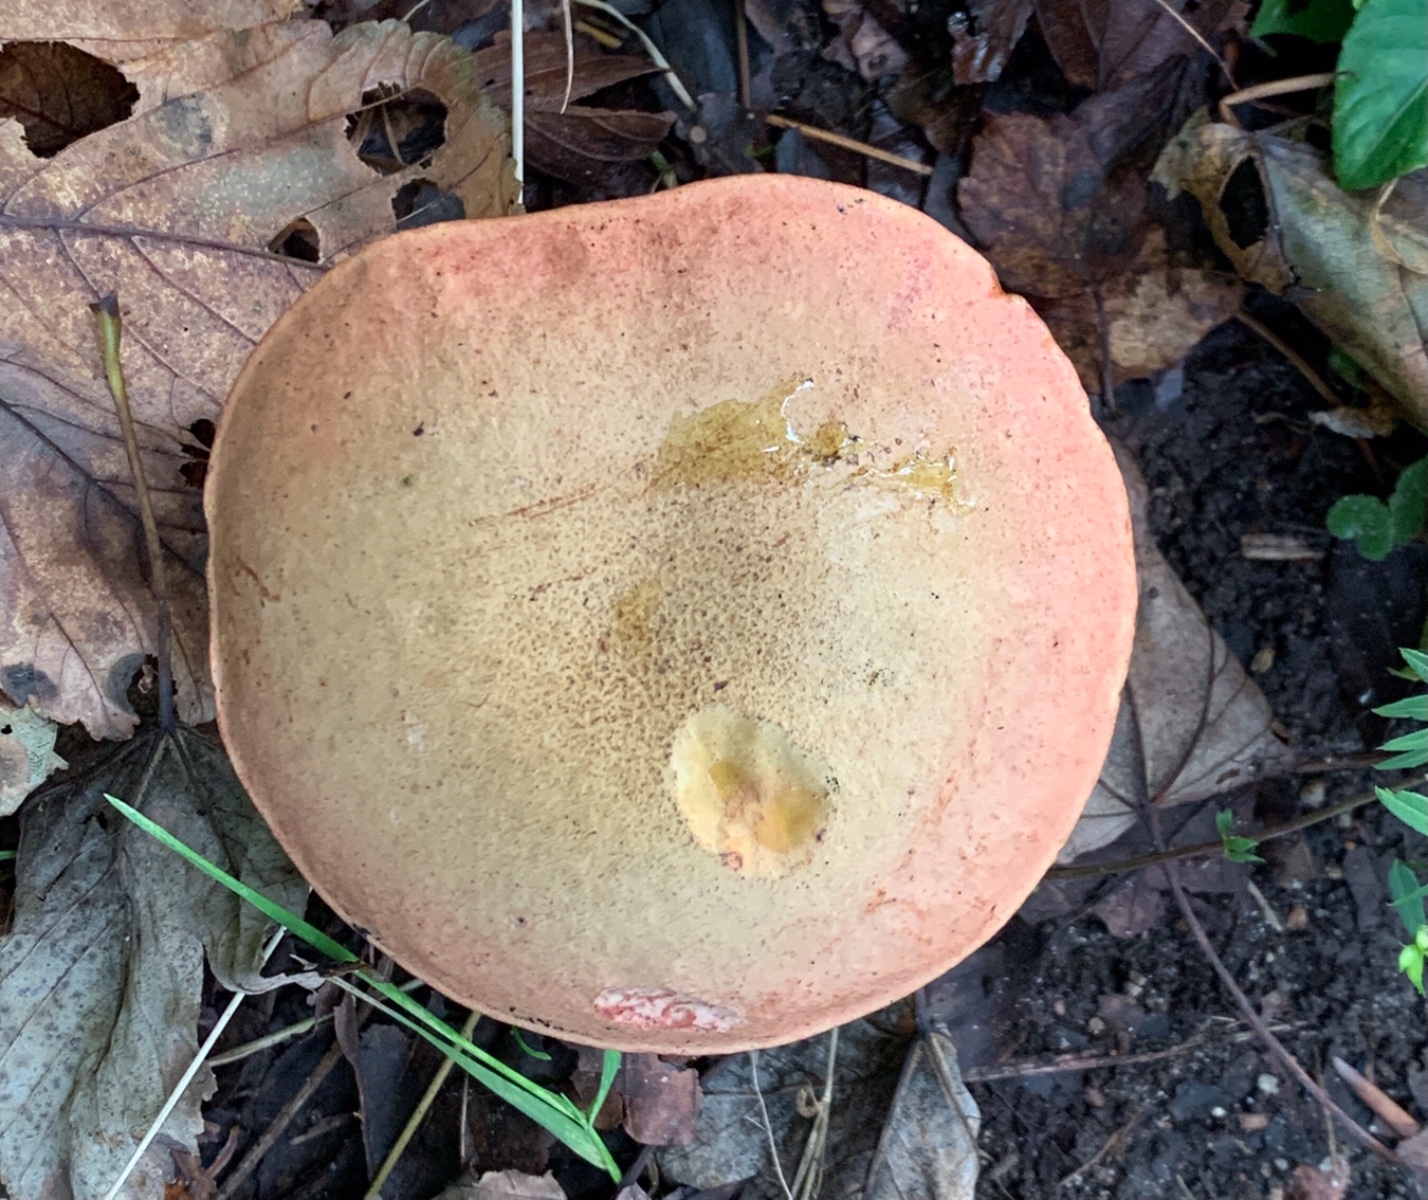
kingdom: Fungi
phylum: Basidiomycota
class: Agaricomycetes
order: Boletales
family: Boletaceae
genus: Suillellus
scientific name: Suillellus luridus
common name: netstokket indigorørhat
